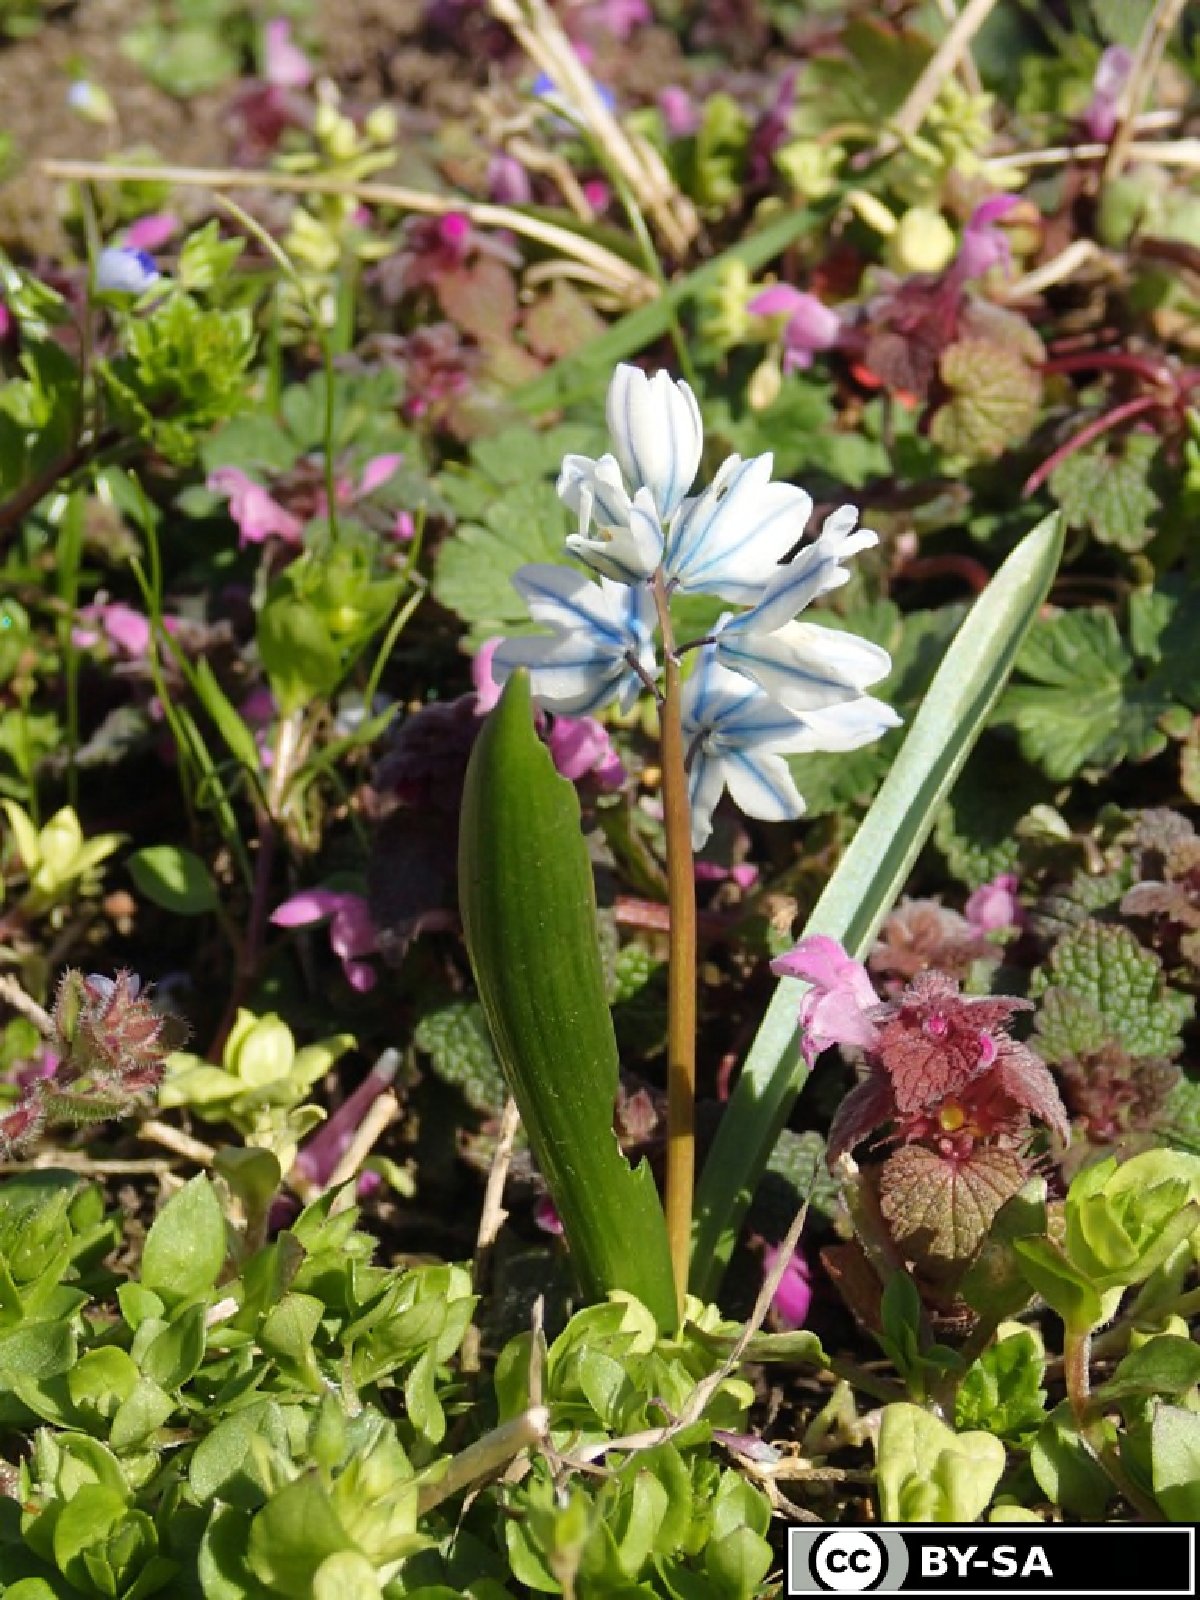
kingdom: Plantae
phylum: Tracheophyta
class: Liliopsida
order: Asparagales
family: Asparagaceae
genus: Puschkinia
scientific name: Puschkinia scilloides
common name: Striped squill
